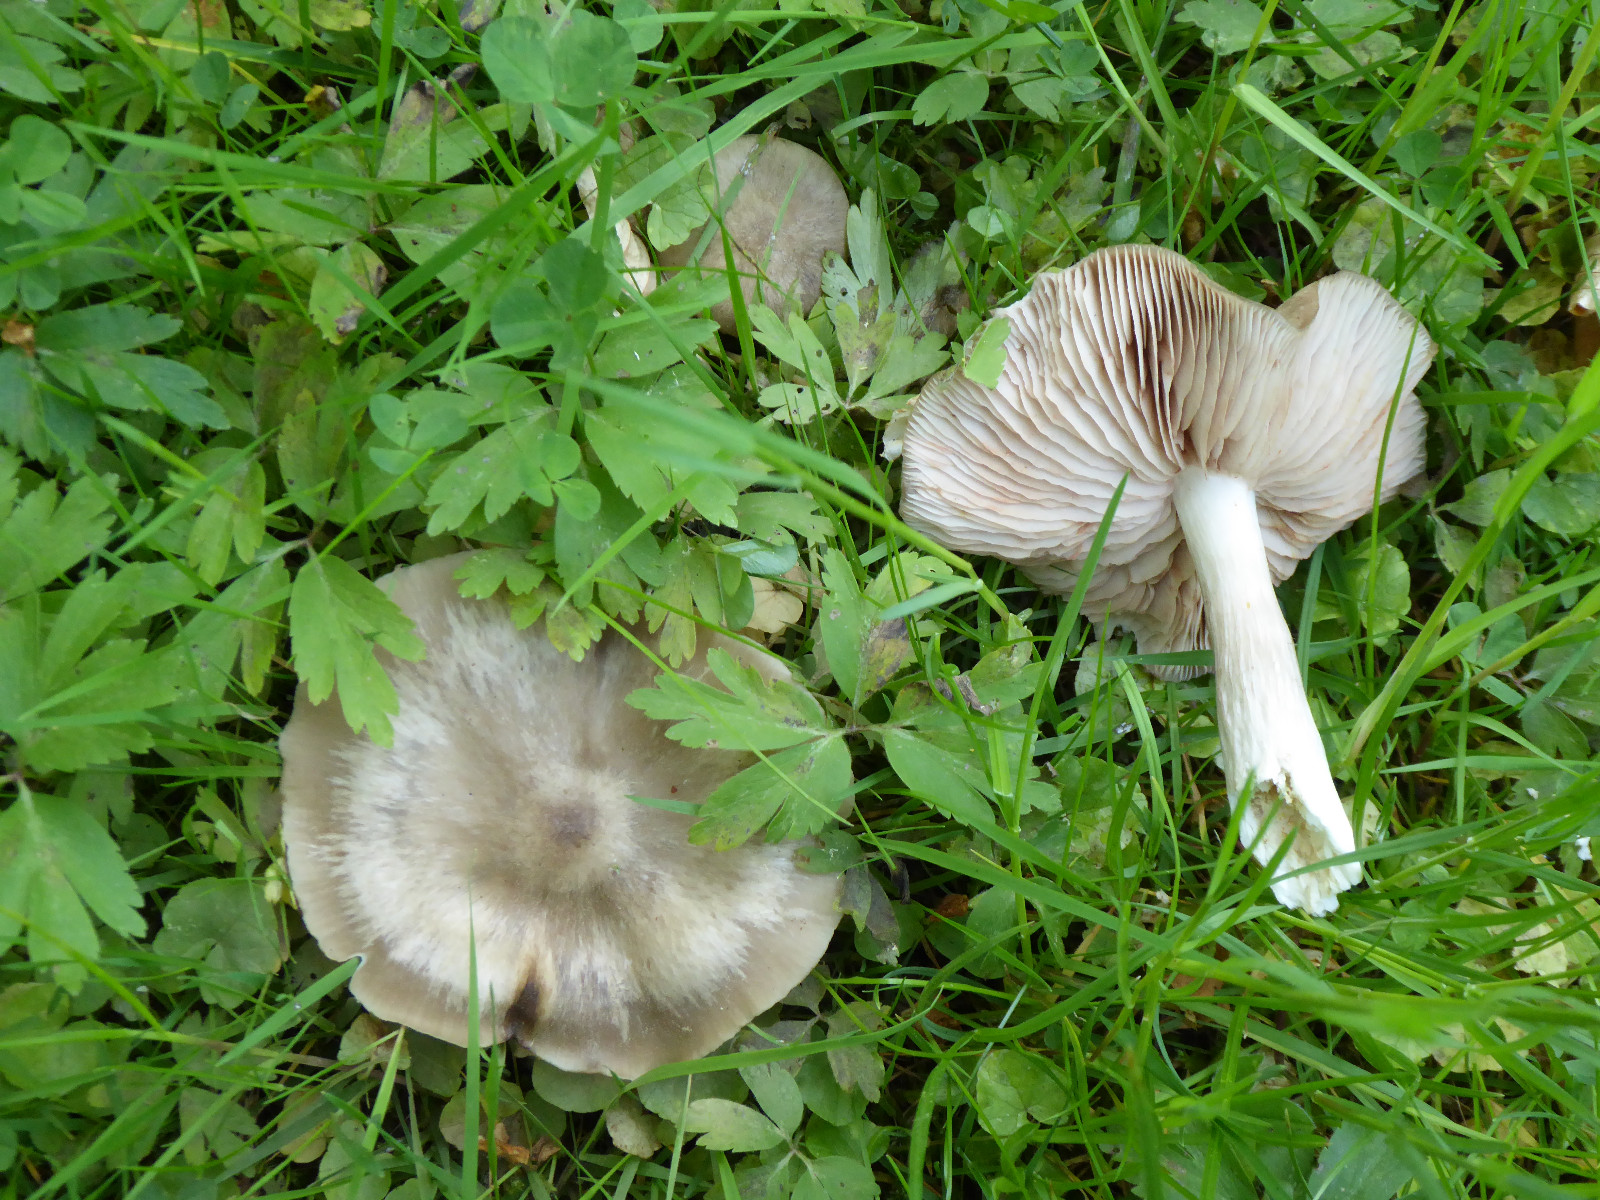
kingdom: Fungi
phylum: Basidiomycota
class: Agaricomycetes
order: Agaricales
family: Entolomataceae
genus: Entoloma
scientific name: Entoloma clypeatum
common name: flammet rødblad
